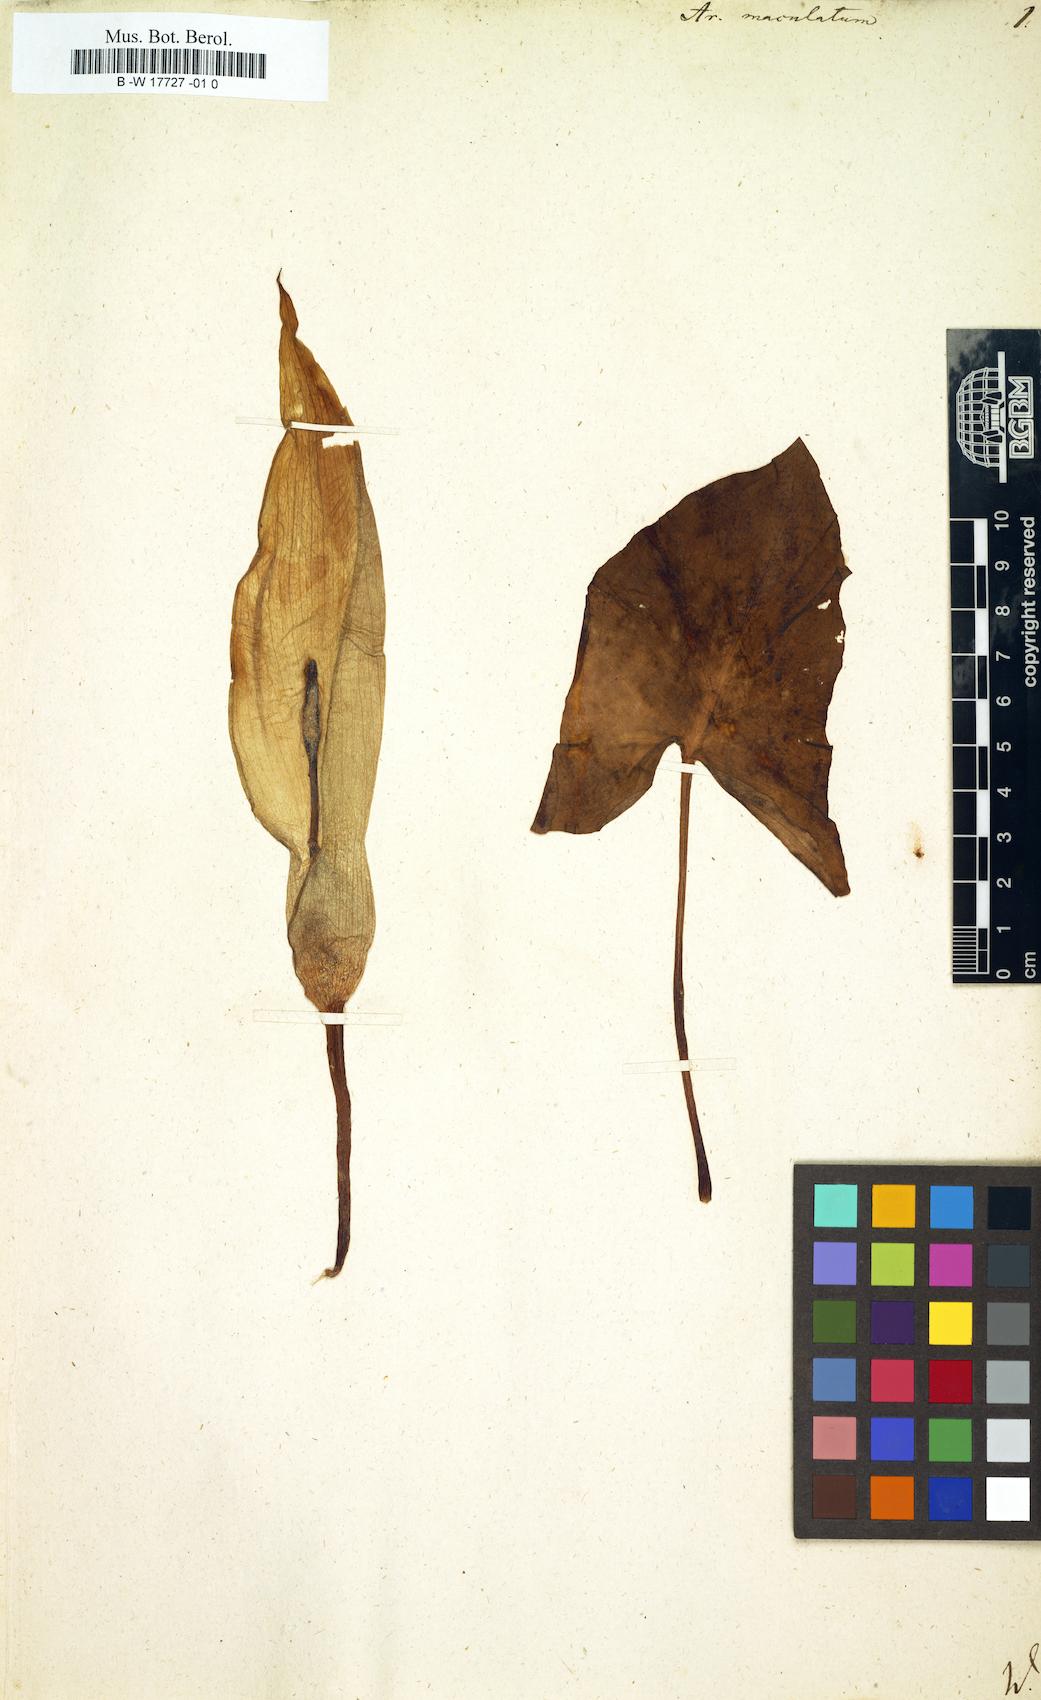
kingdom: Plantae
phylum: Tracheophyta
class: Liliopsida
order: Alismatales
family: Araceae
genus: Arum
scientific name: Arum maculatum
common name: Lords-and-ladies
